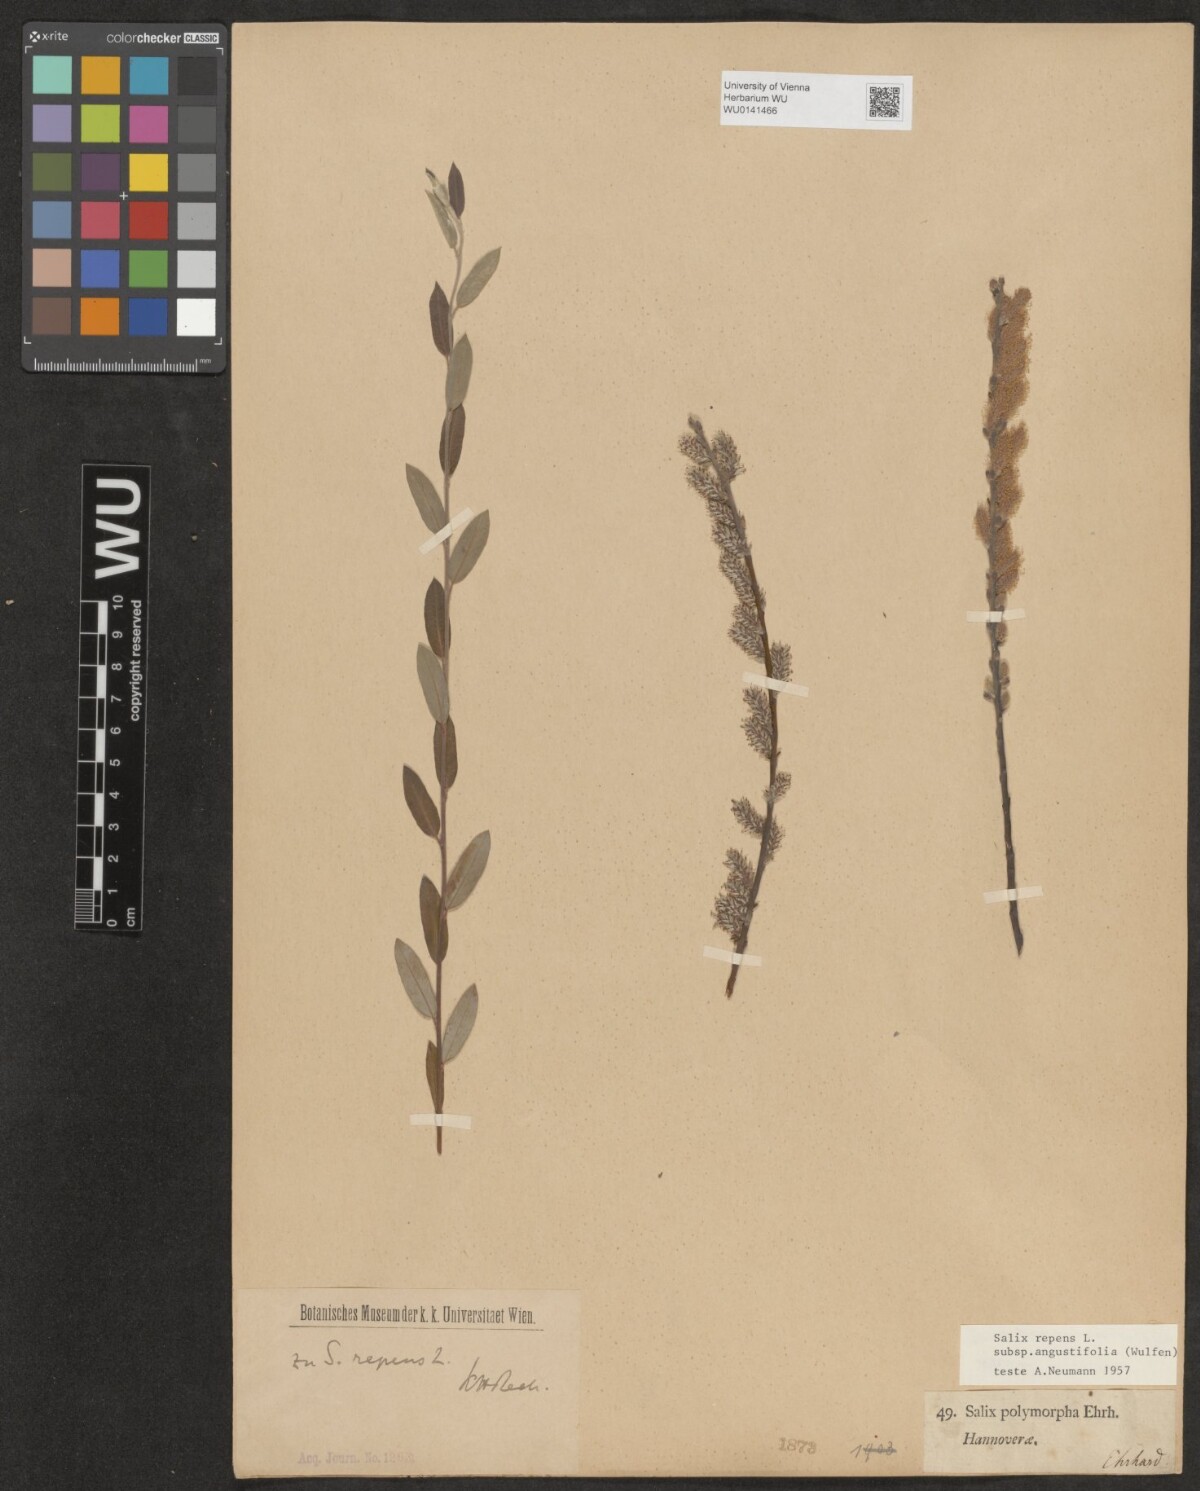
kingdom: Plantae
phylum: Tracheophyta
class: Magnoliopsida
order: Malpighiales
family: Salicaceae
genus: Salix
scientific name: Salix rosmarinifolia
